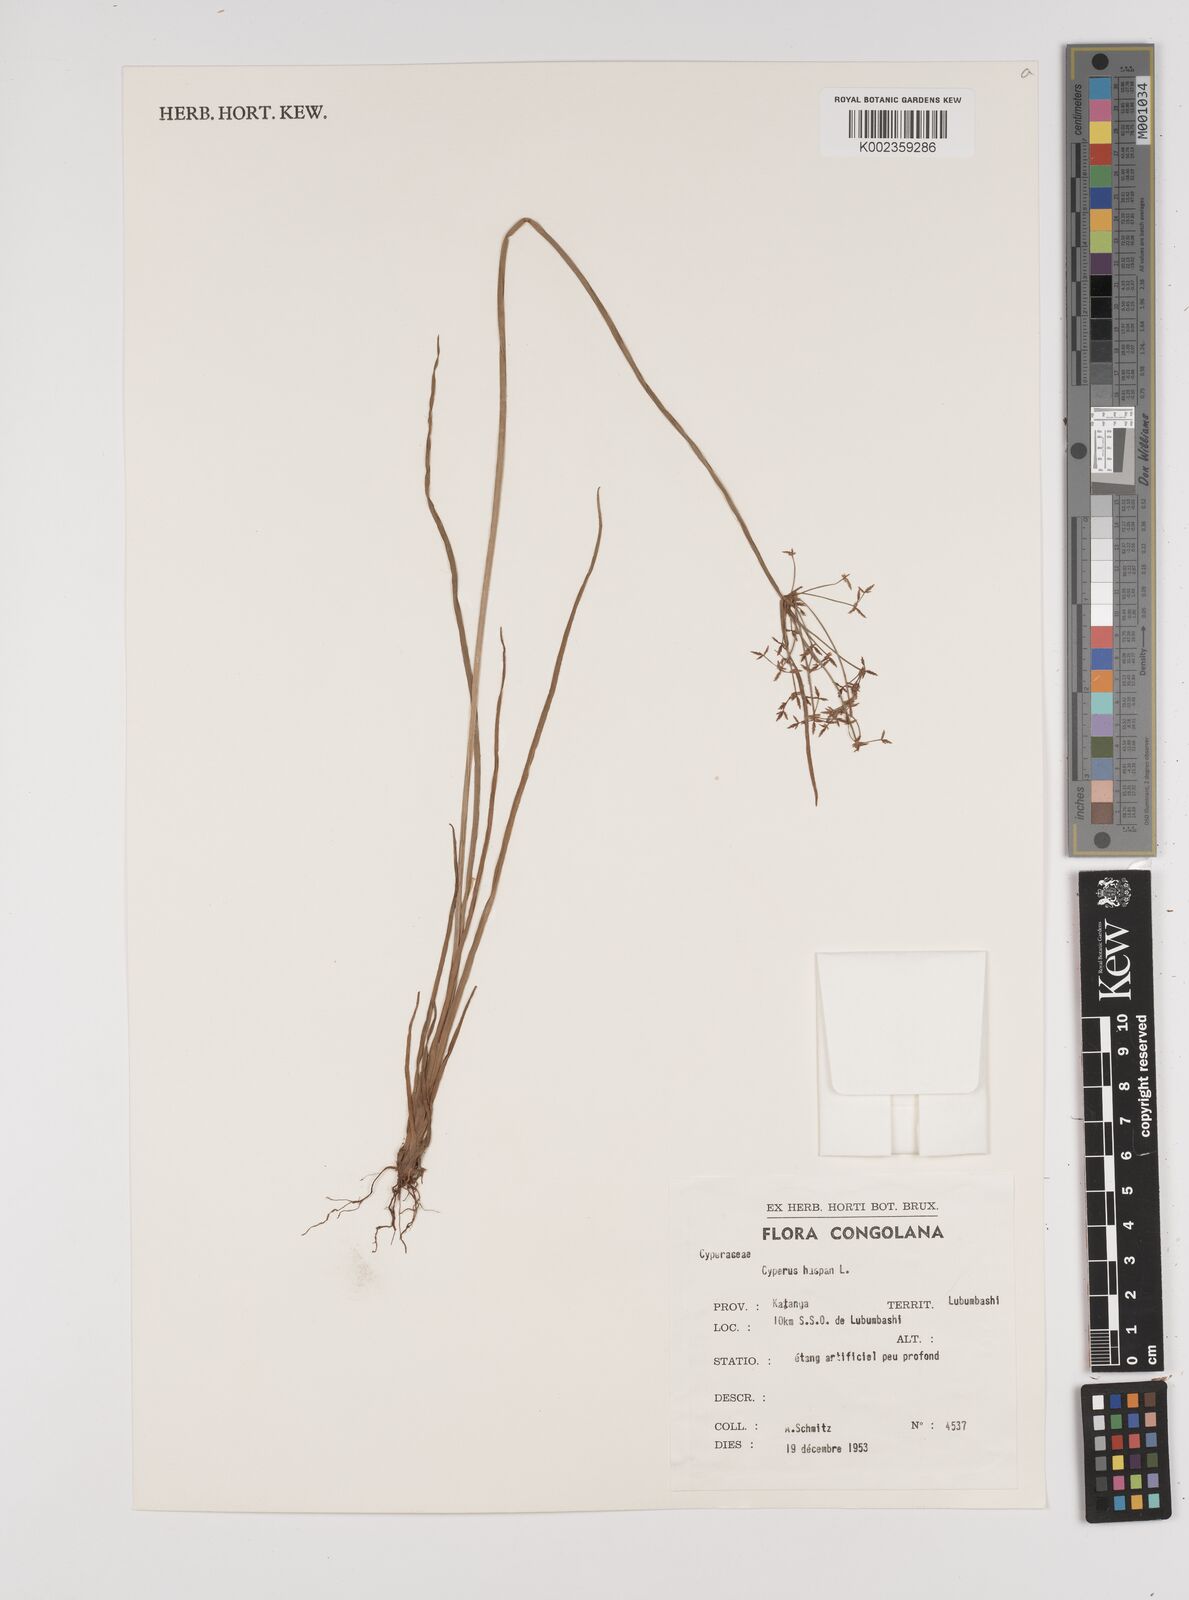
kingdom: Plantae
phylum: Tracheophyta
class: Liliopsida
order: Poales
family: Cyperaceae
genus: Cyperus
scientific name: Cyperus haspan
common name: Haspan flatsedge
